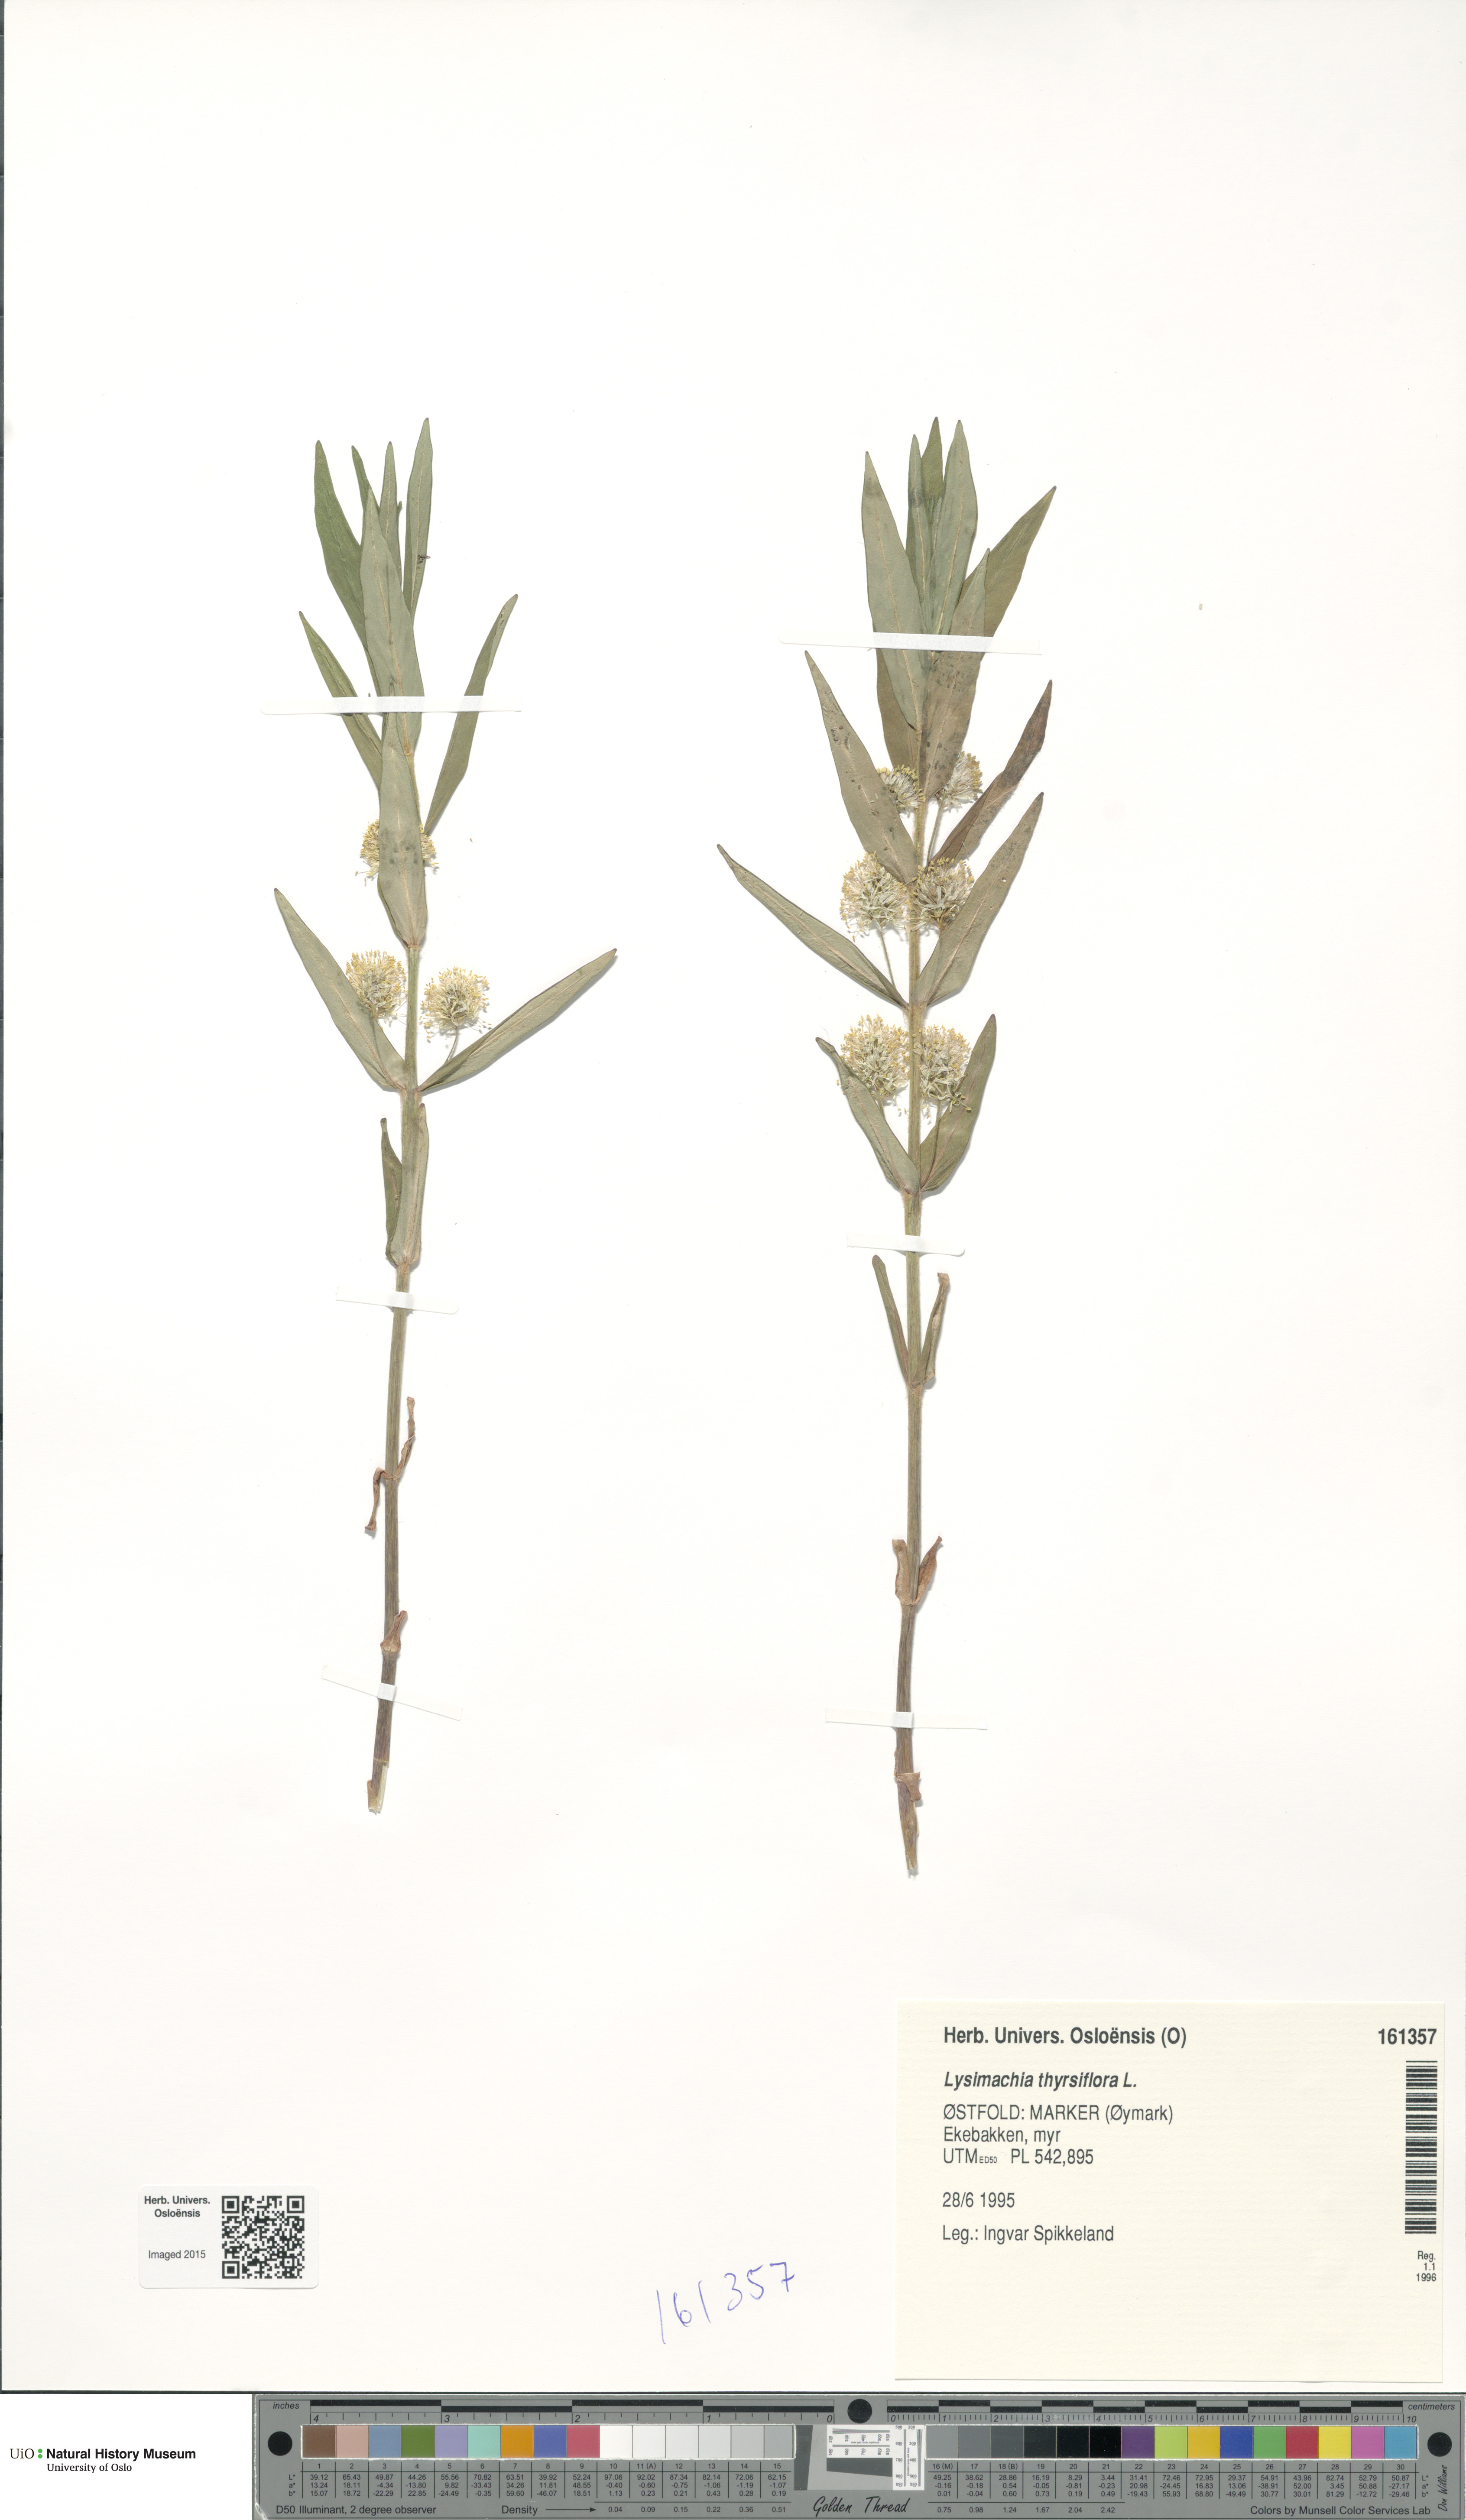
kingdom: Plantae
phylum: Tracheophyta
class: Magnoliopsida
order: Ericales
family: Primulaceae
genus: Lysimachia
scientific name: Lysimachia thyrsiflora
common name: Tufted loosestrife
